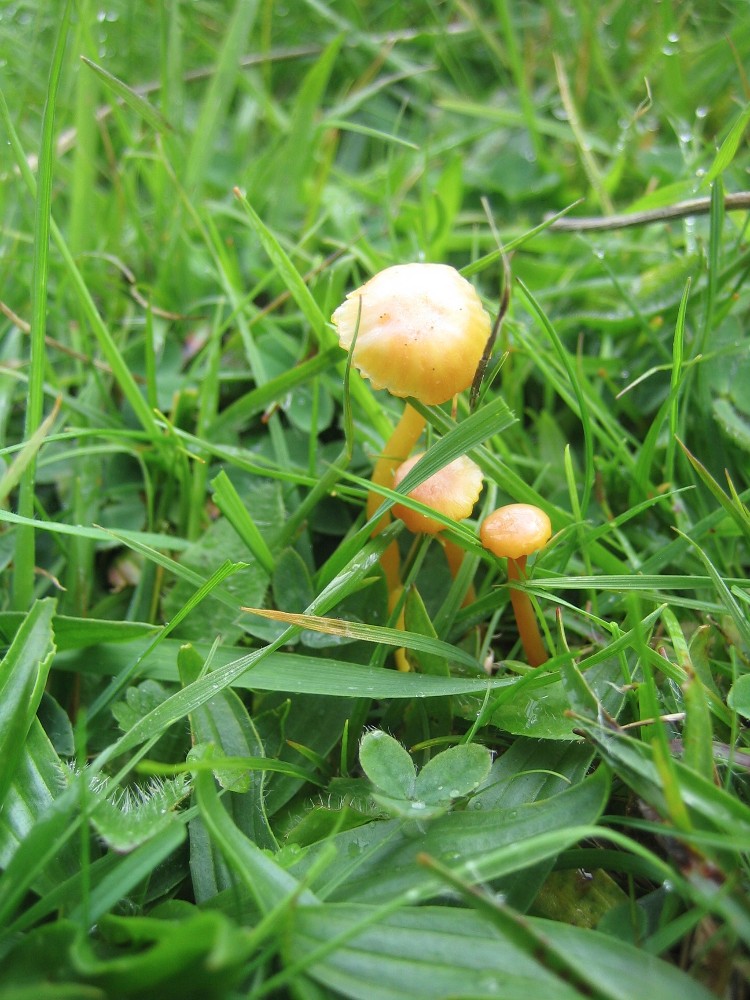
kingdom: Fungi
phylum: Basidiomycota
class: Agaricomycetes
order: Agaricales
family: Hygrophoraceae
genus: Hygrocybe
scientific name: Hygrocybe insipida
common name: liden vokshat
